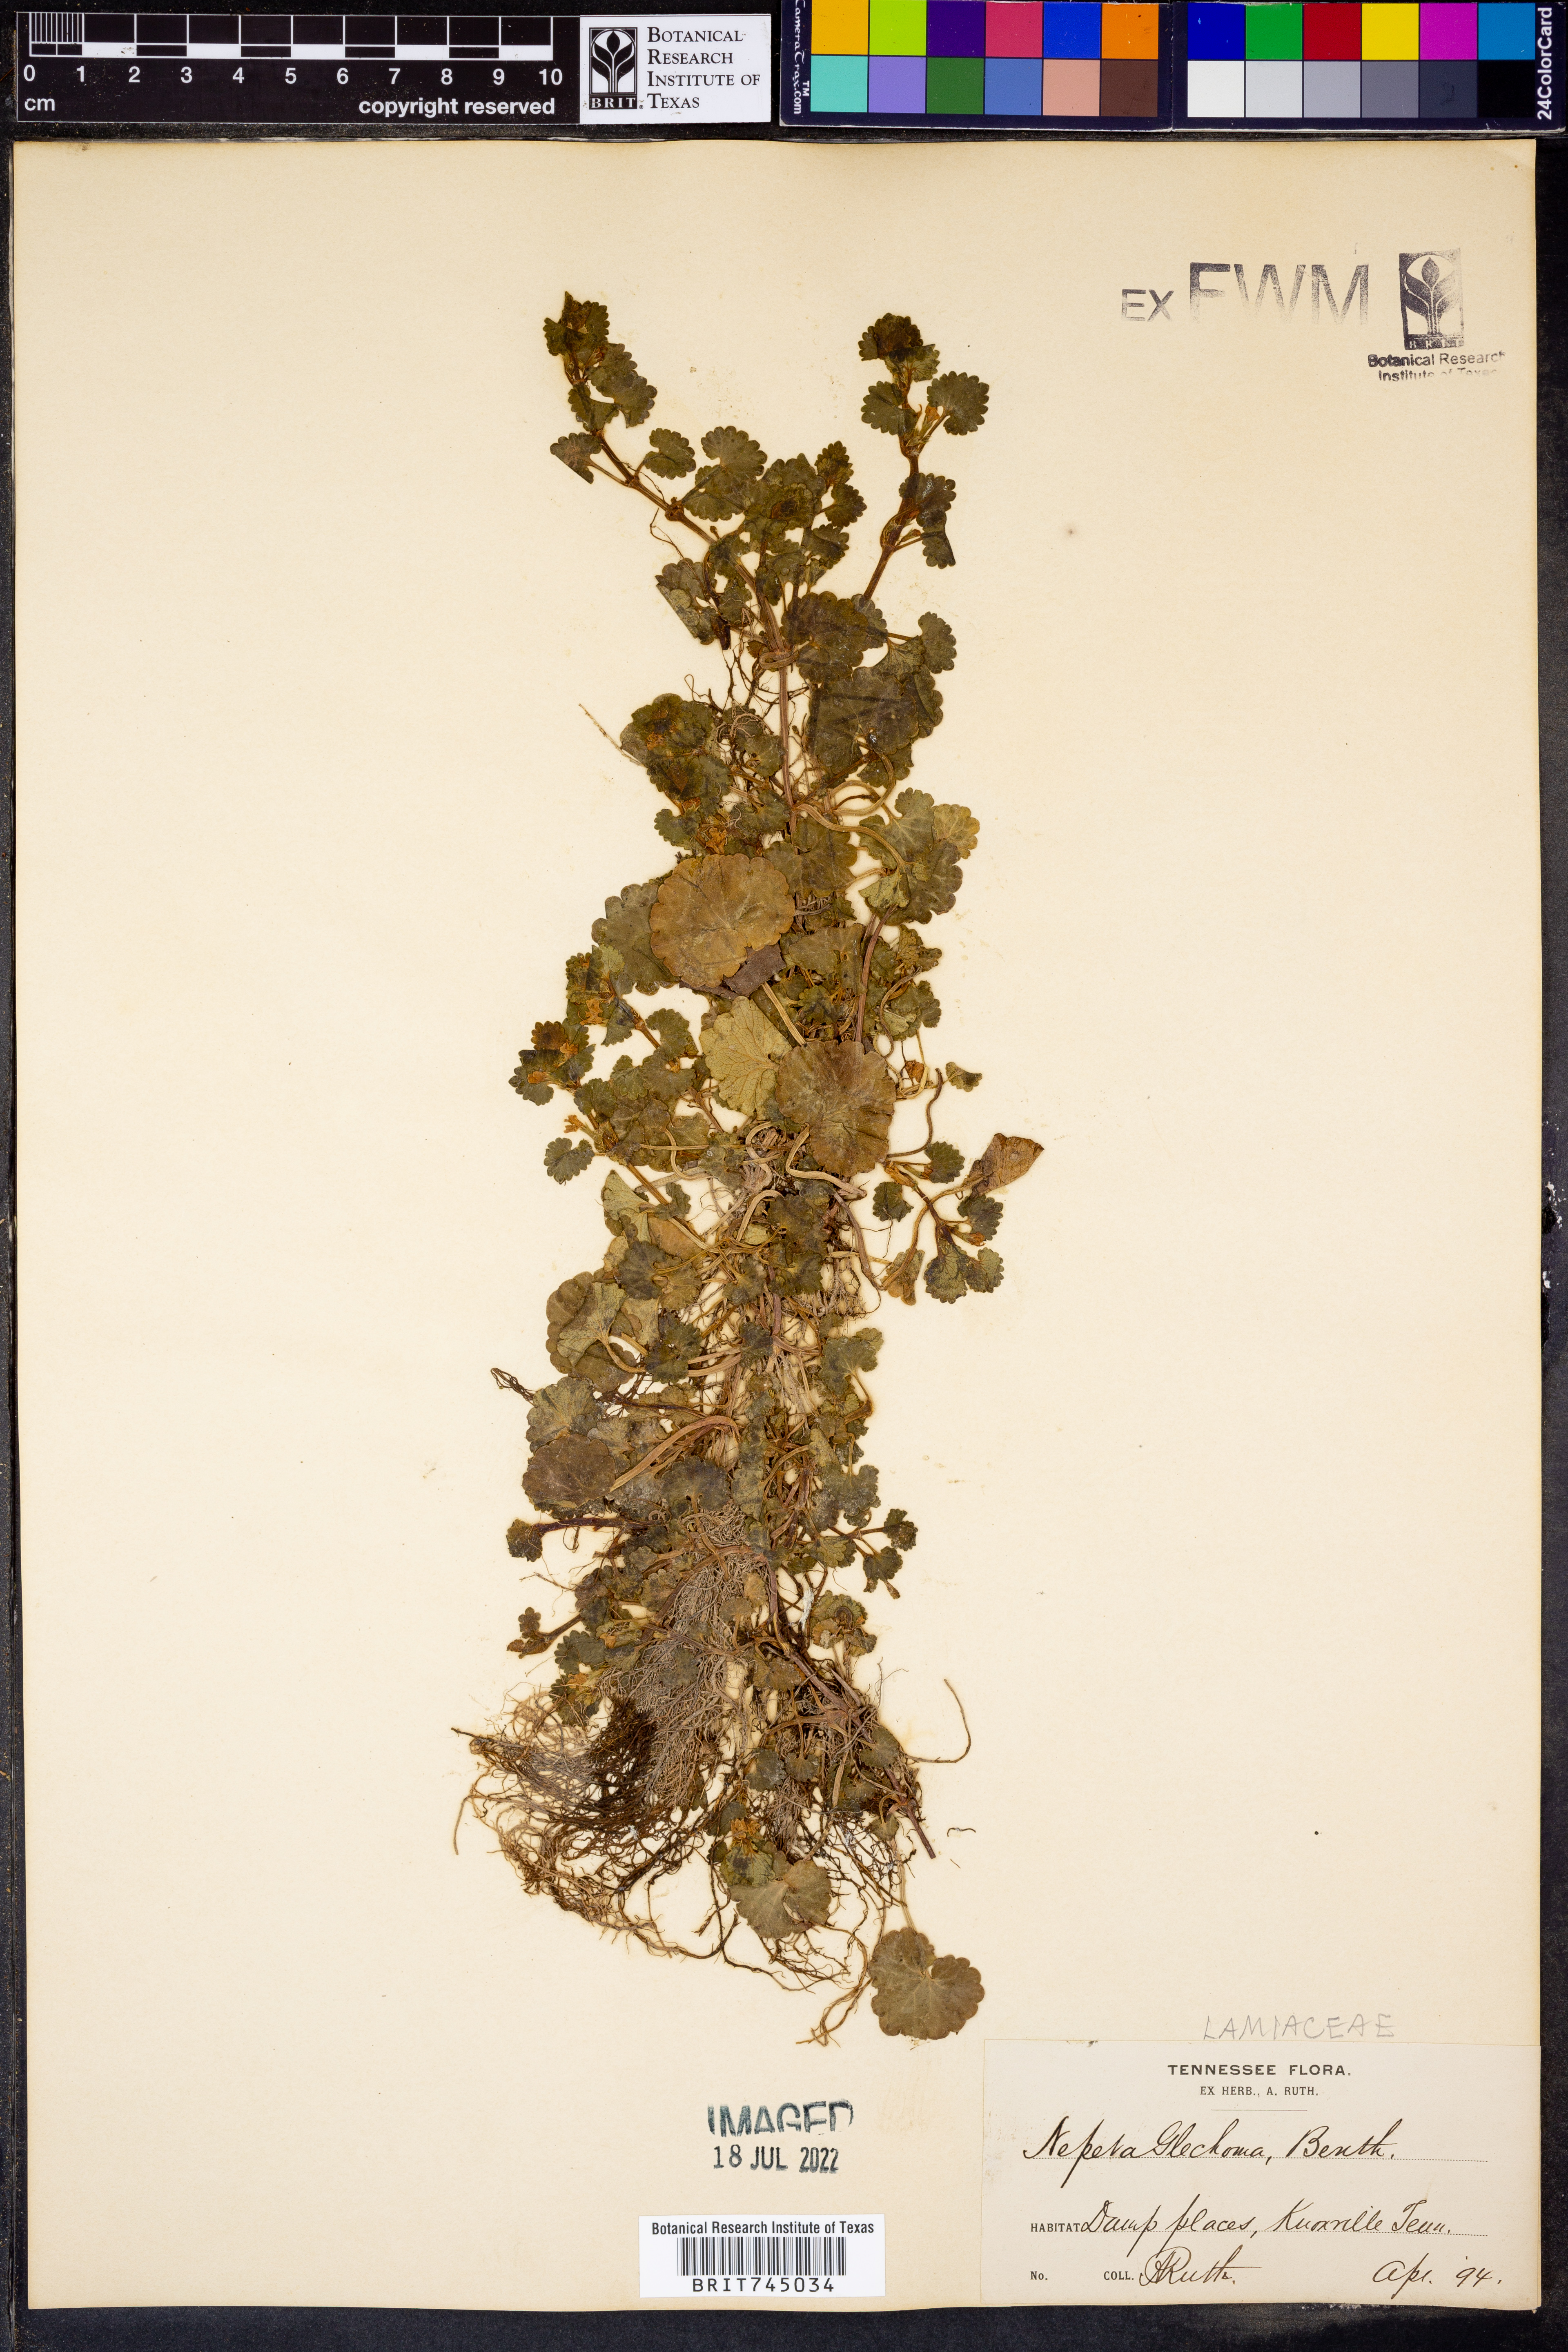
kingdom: Plantae
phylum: Tracheophyta
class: Magnoliopsida
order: Lamiales
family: Lamiaceae
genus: Nepeta
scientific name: Nepeta
